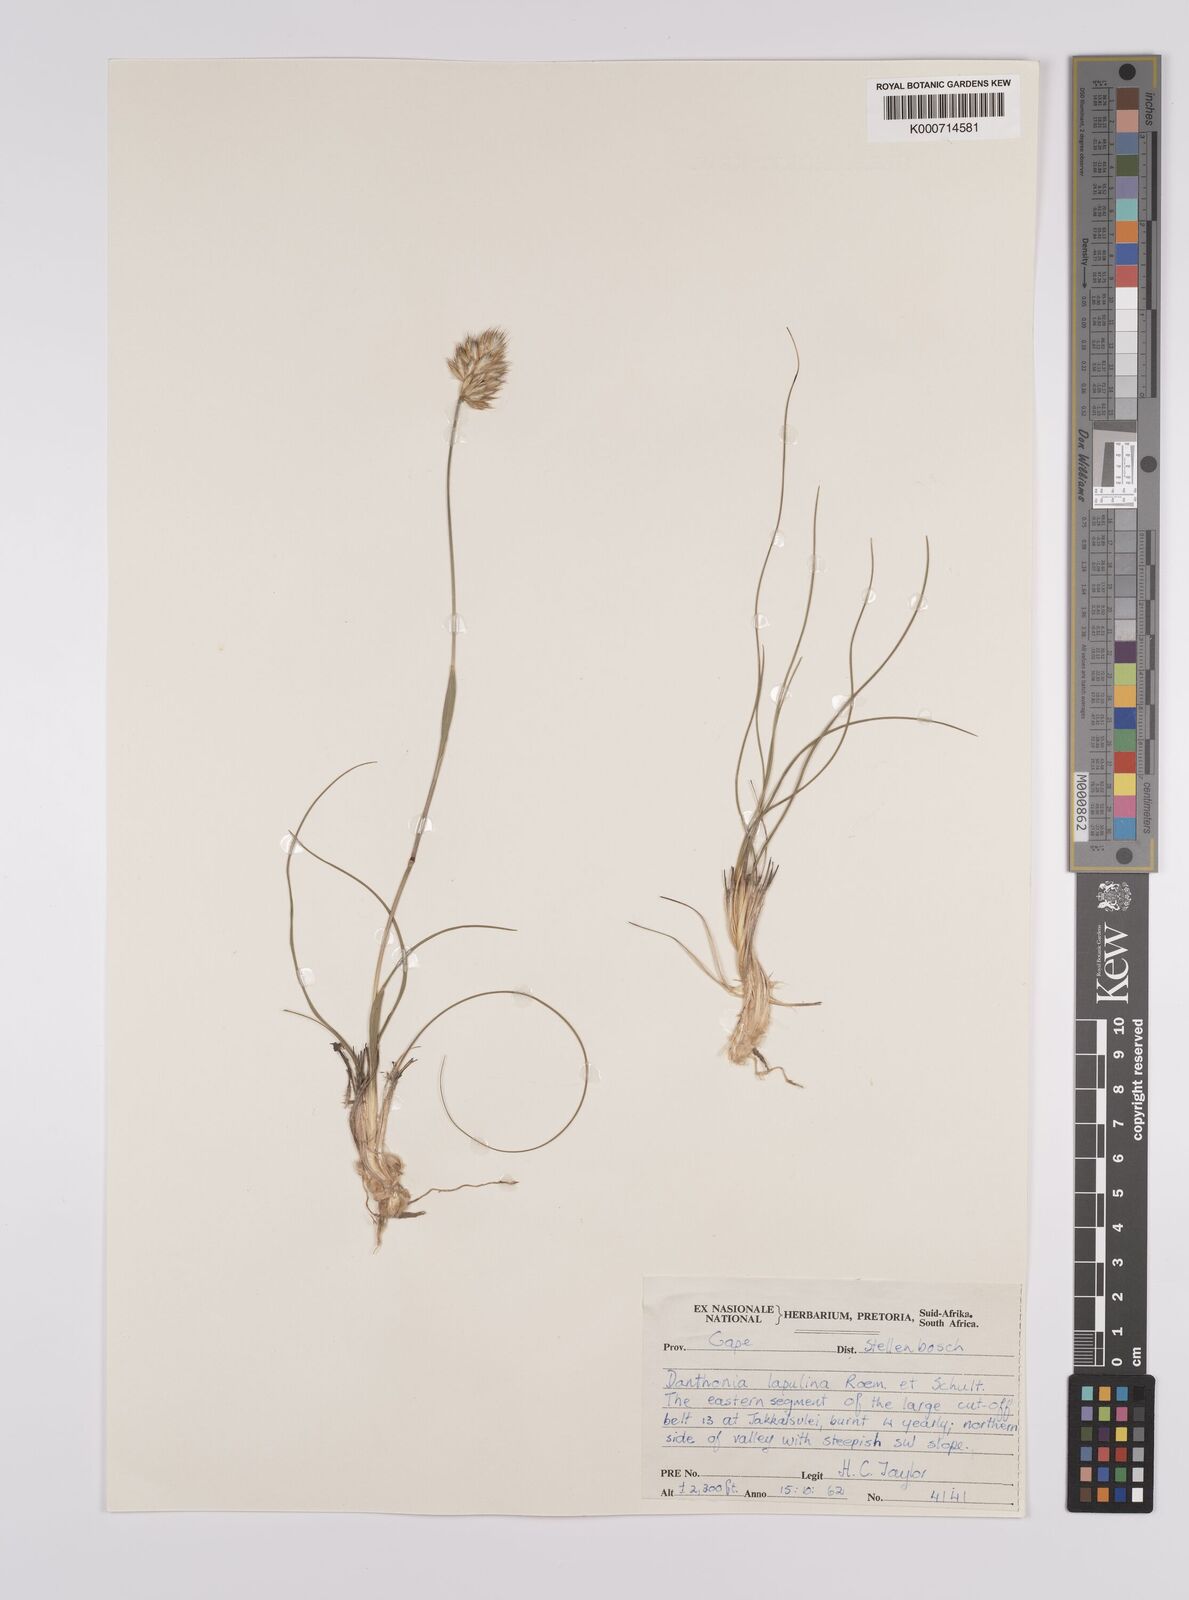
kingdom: Plantae
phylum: Tracheophyta
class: Liliopsida
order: Poales
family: Poaceae
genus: Rytidosperma
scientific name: Rytidosperma
